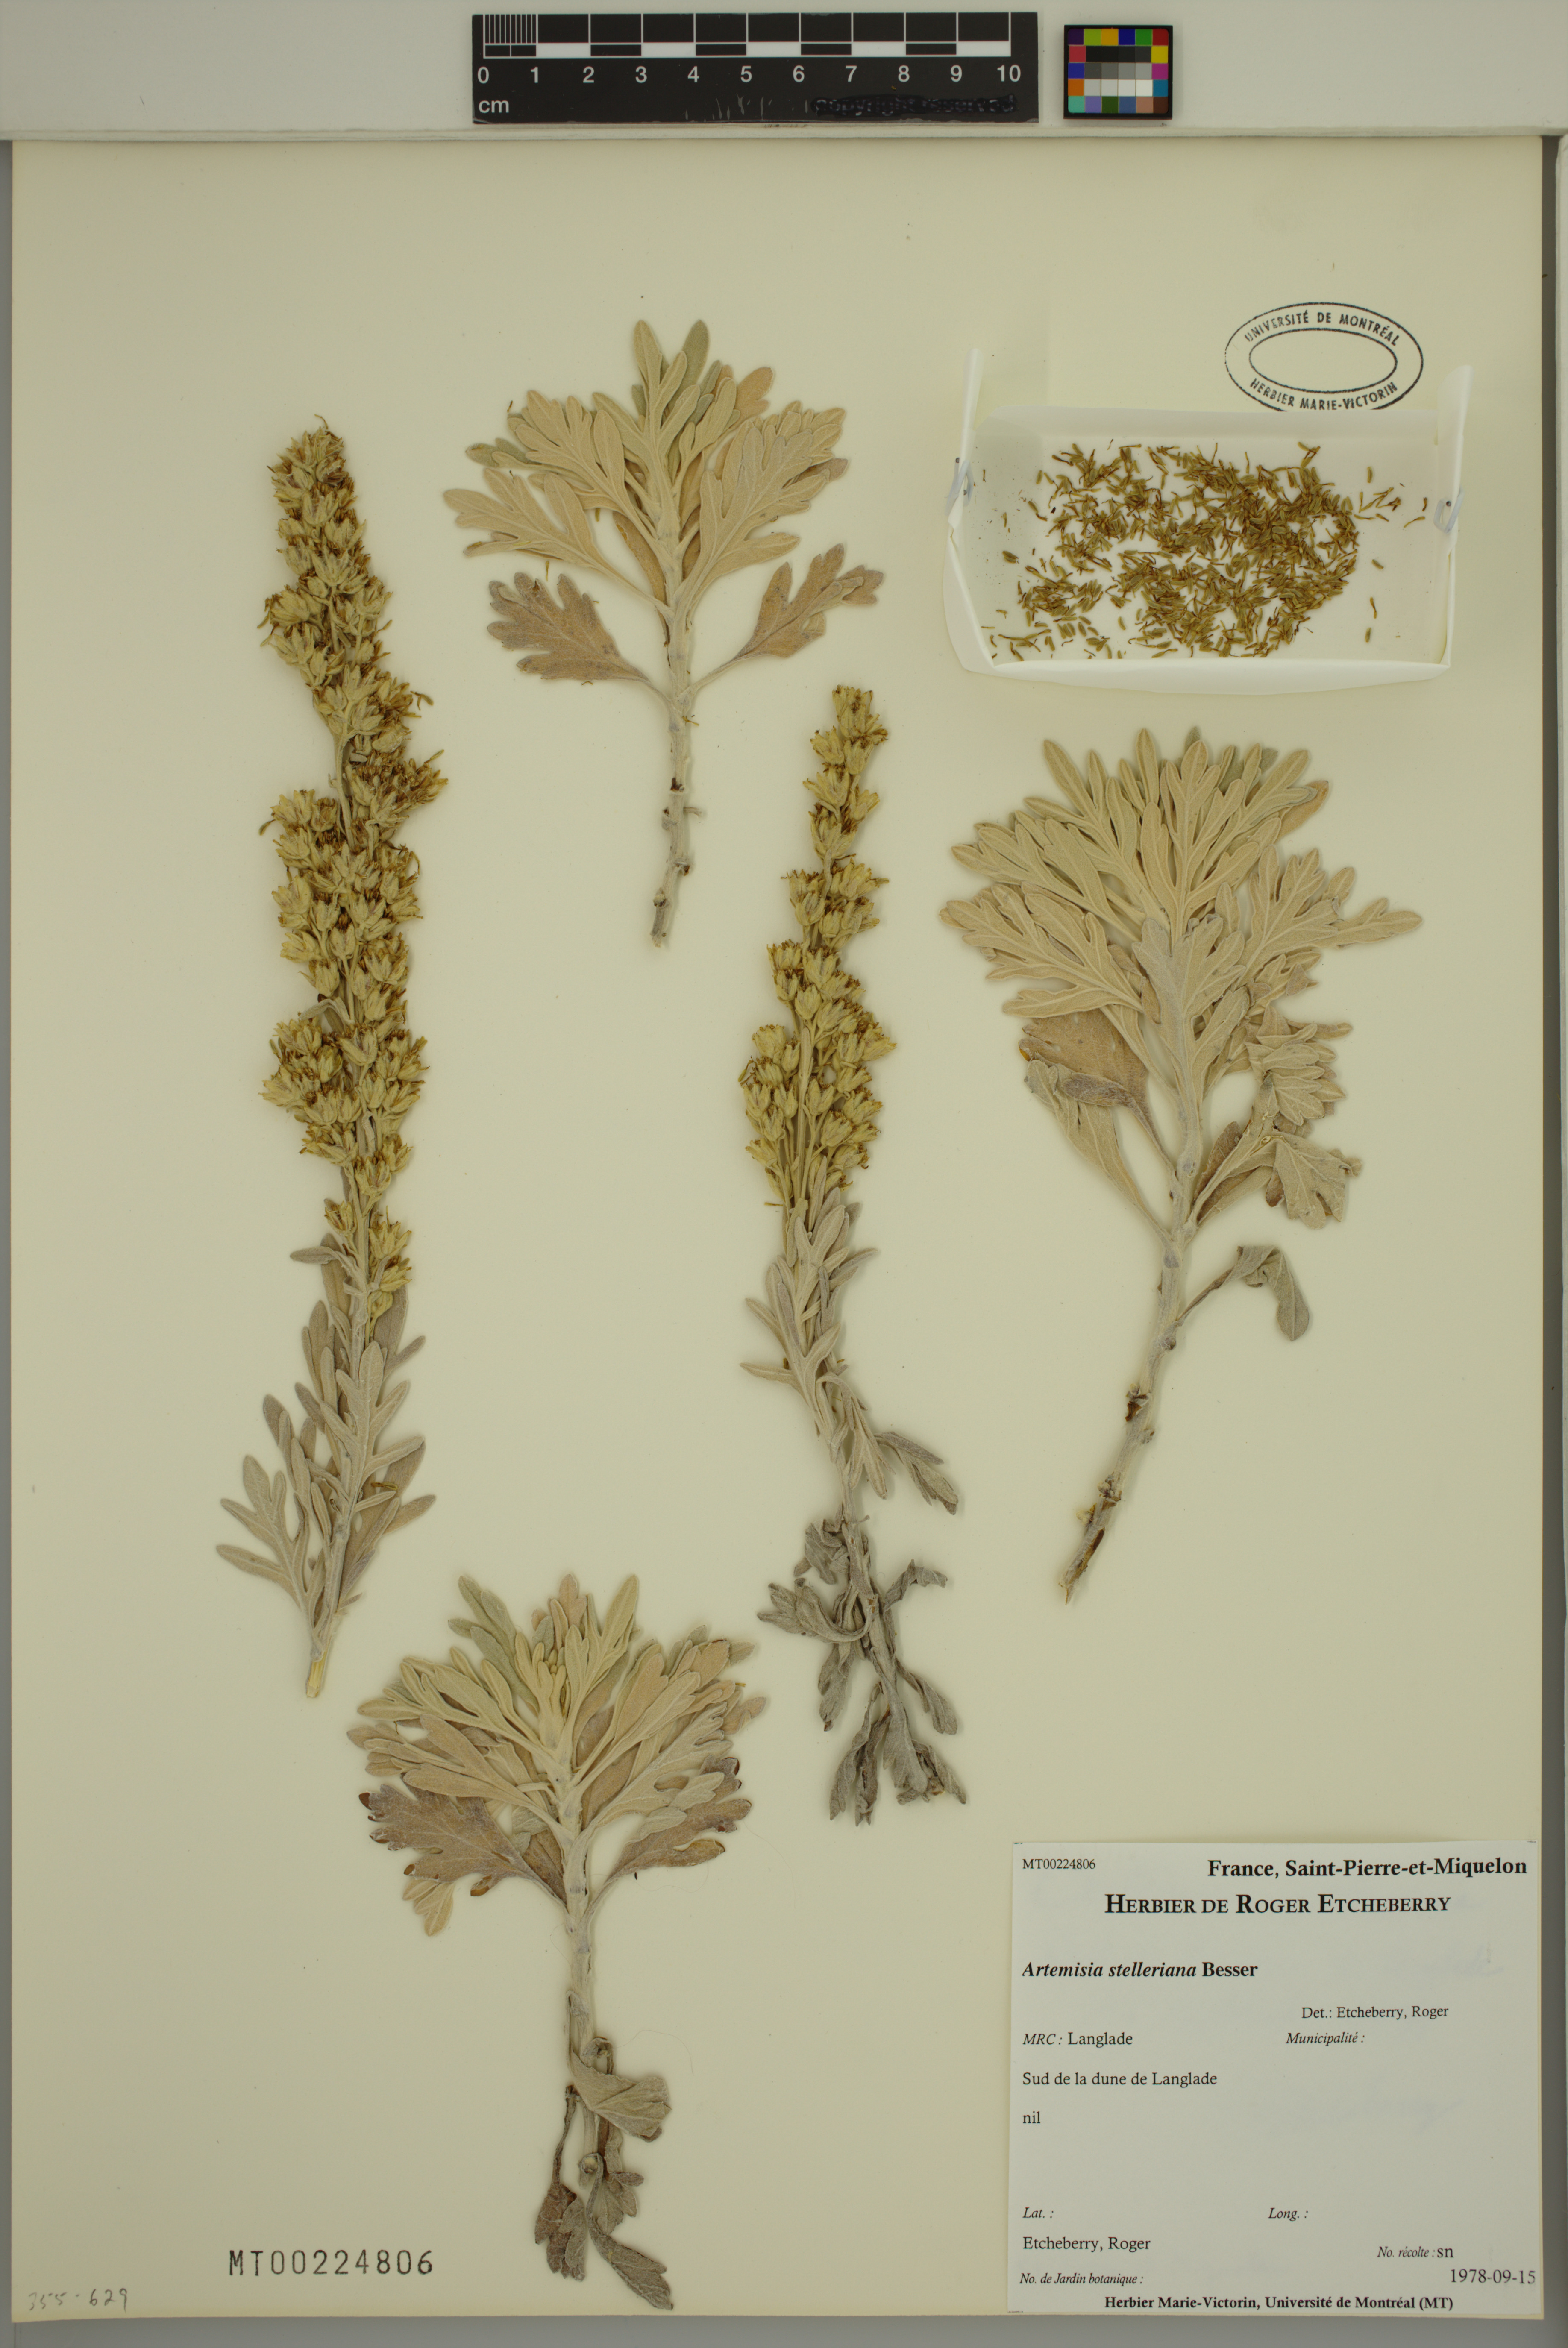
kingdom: Plantae
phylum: Tracheophyta
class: Magnoliopsida
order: Asterales
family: Asteraceae
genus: Artemisia
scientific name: Artemisia stelleriana
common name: Beach wormwood
